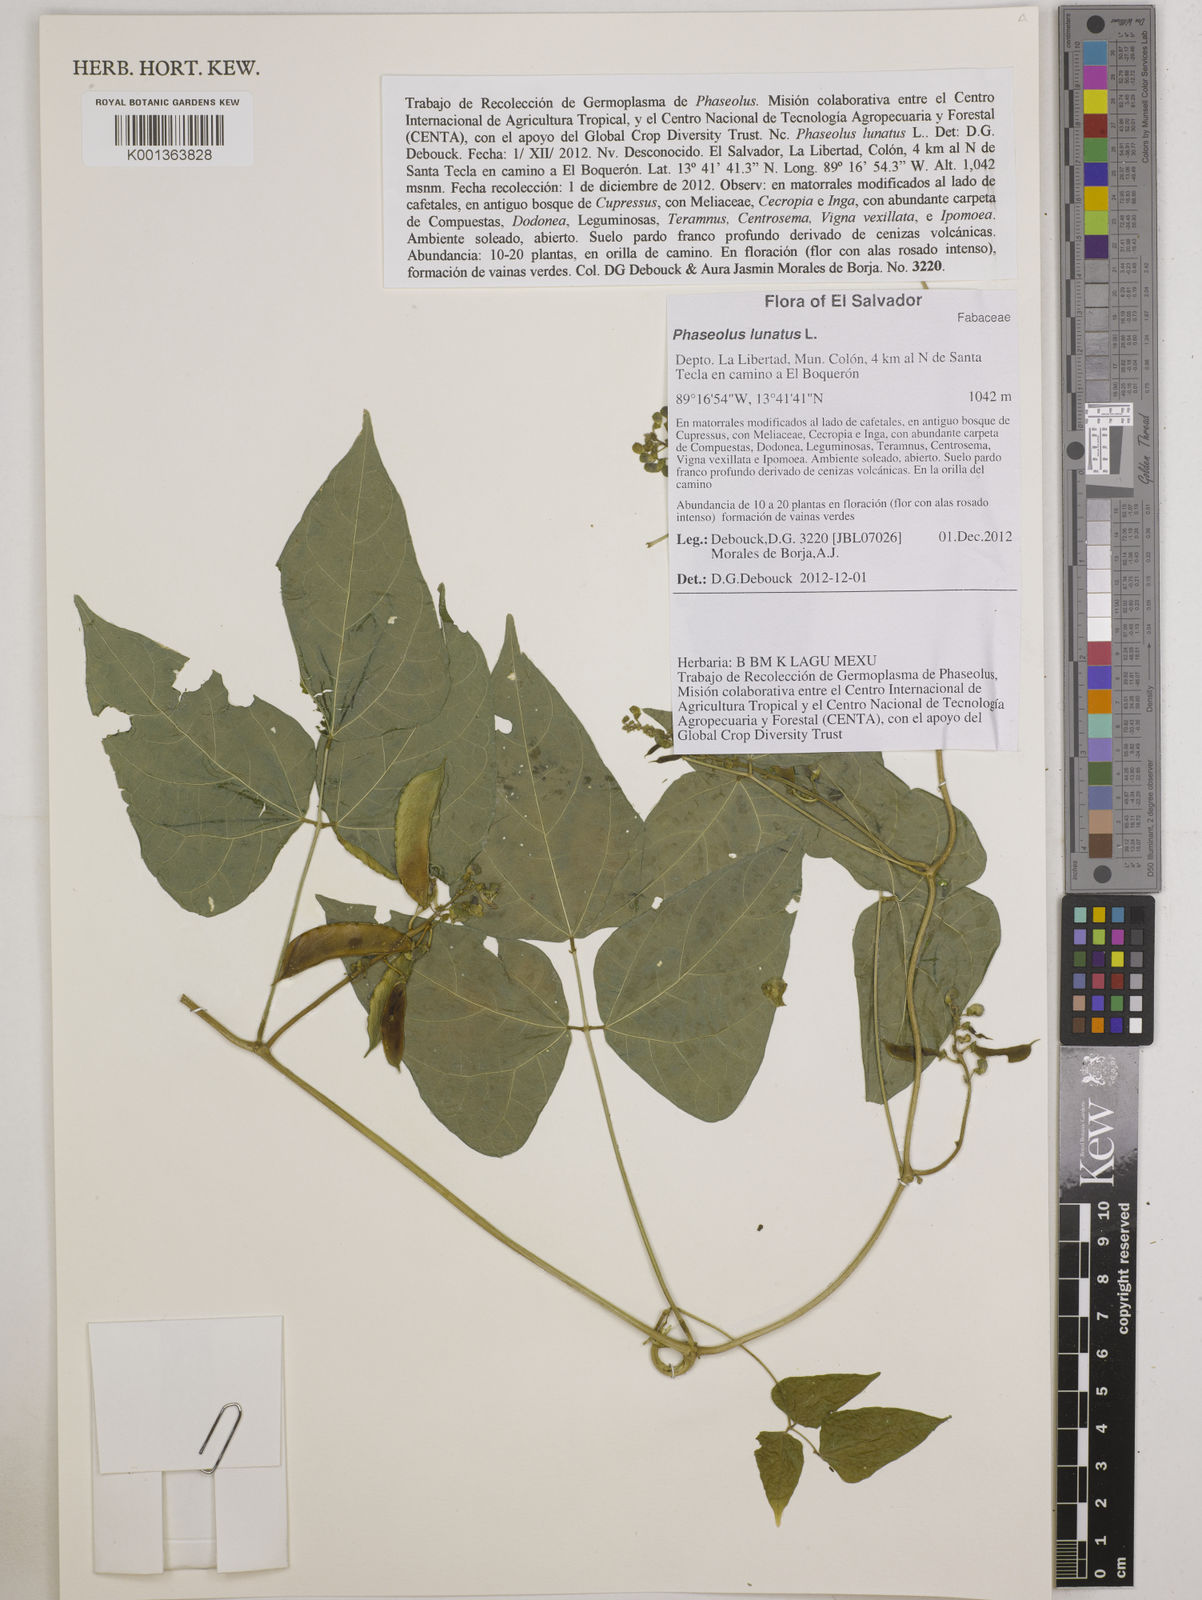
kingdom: Plantae
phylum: Tracheophyta
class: Magnoliopsida
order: Fabales
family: Fabaceae
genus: Phaseolus
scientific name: Phaseolus lunatus
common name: Sieva bean
